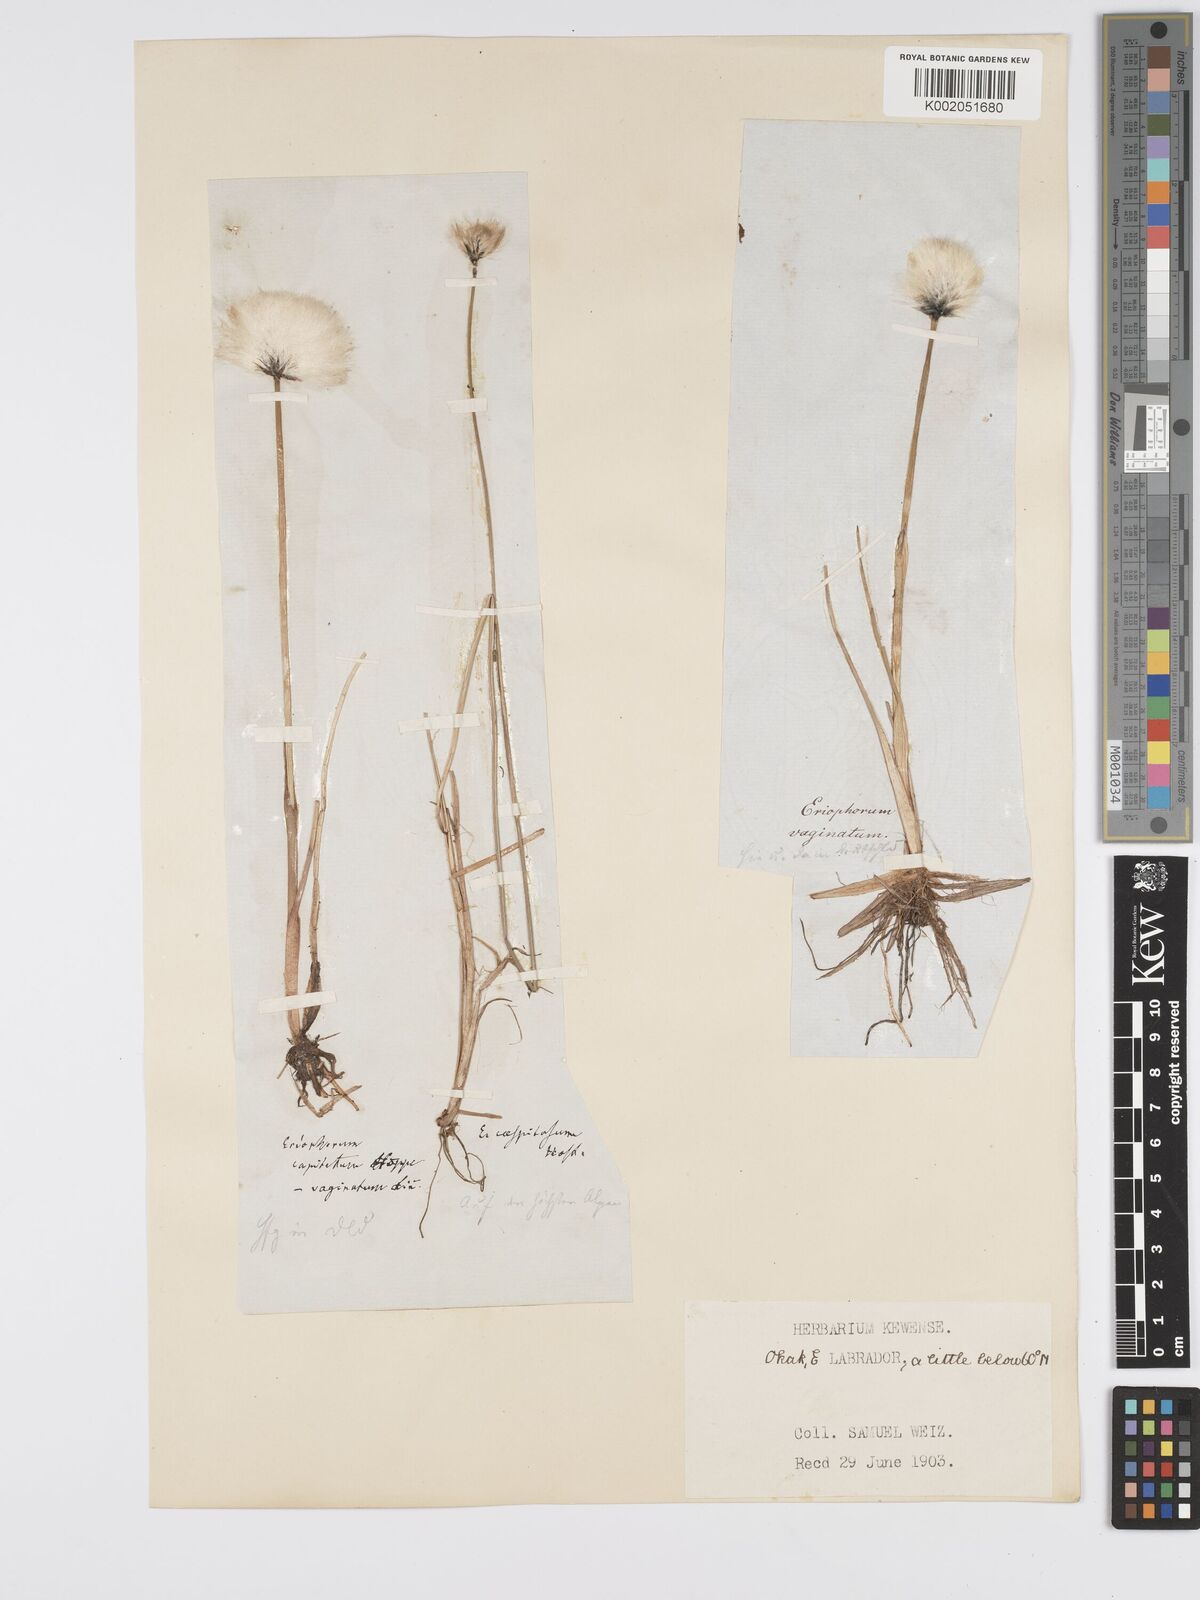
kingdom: Plantae
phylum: Tracheophyta
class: Liliopsida
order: Poales
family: Cyperaceae
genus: Eriophorum
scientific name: Eriophorum vaginatum
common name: Hare's-tail cottongrass
